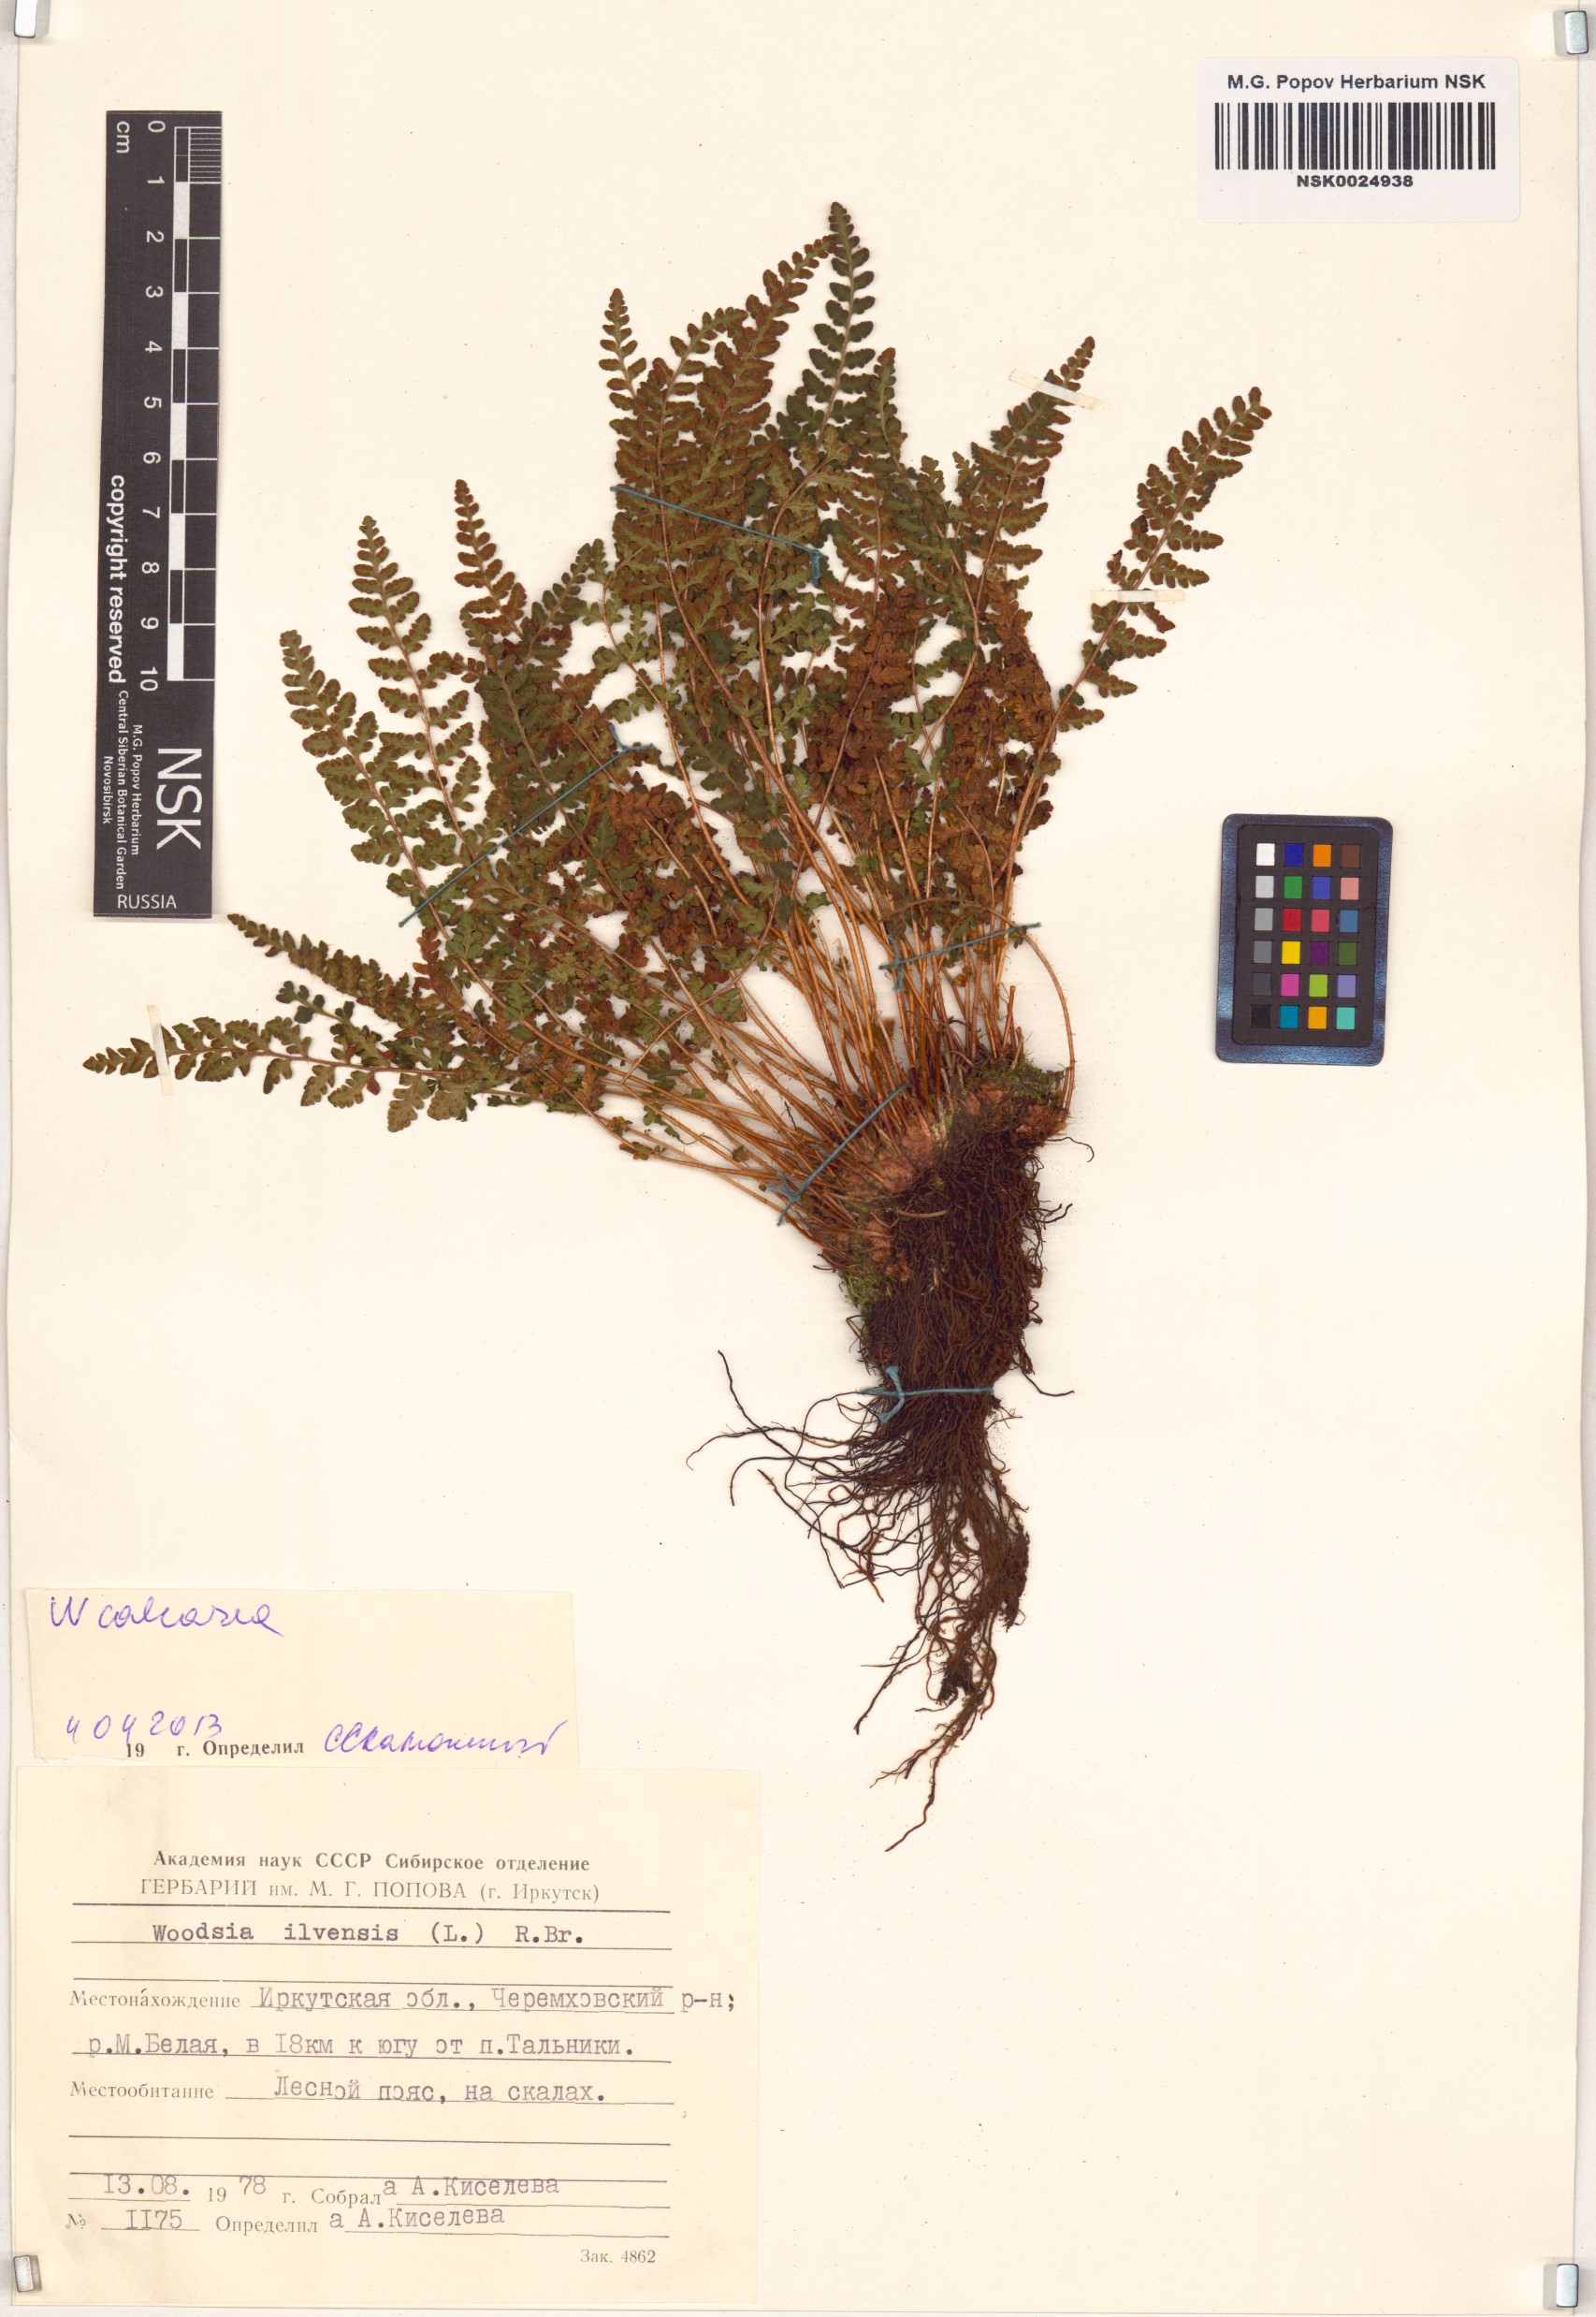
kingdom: Plantae
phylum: Tracheophyta
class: Polypodiopsida
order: Polypodiales
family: Woodsiaceae
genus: Woodsia
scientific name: Woodsia calcarea
